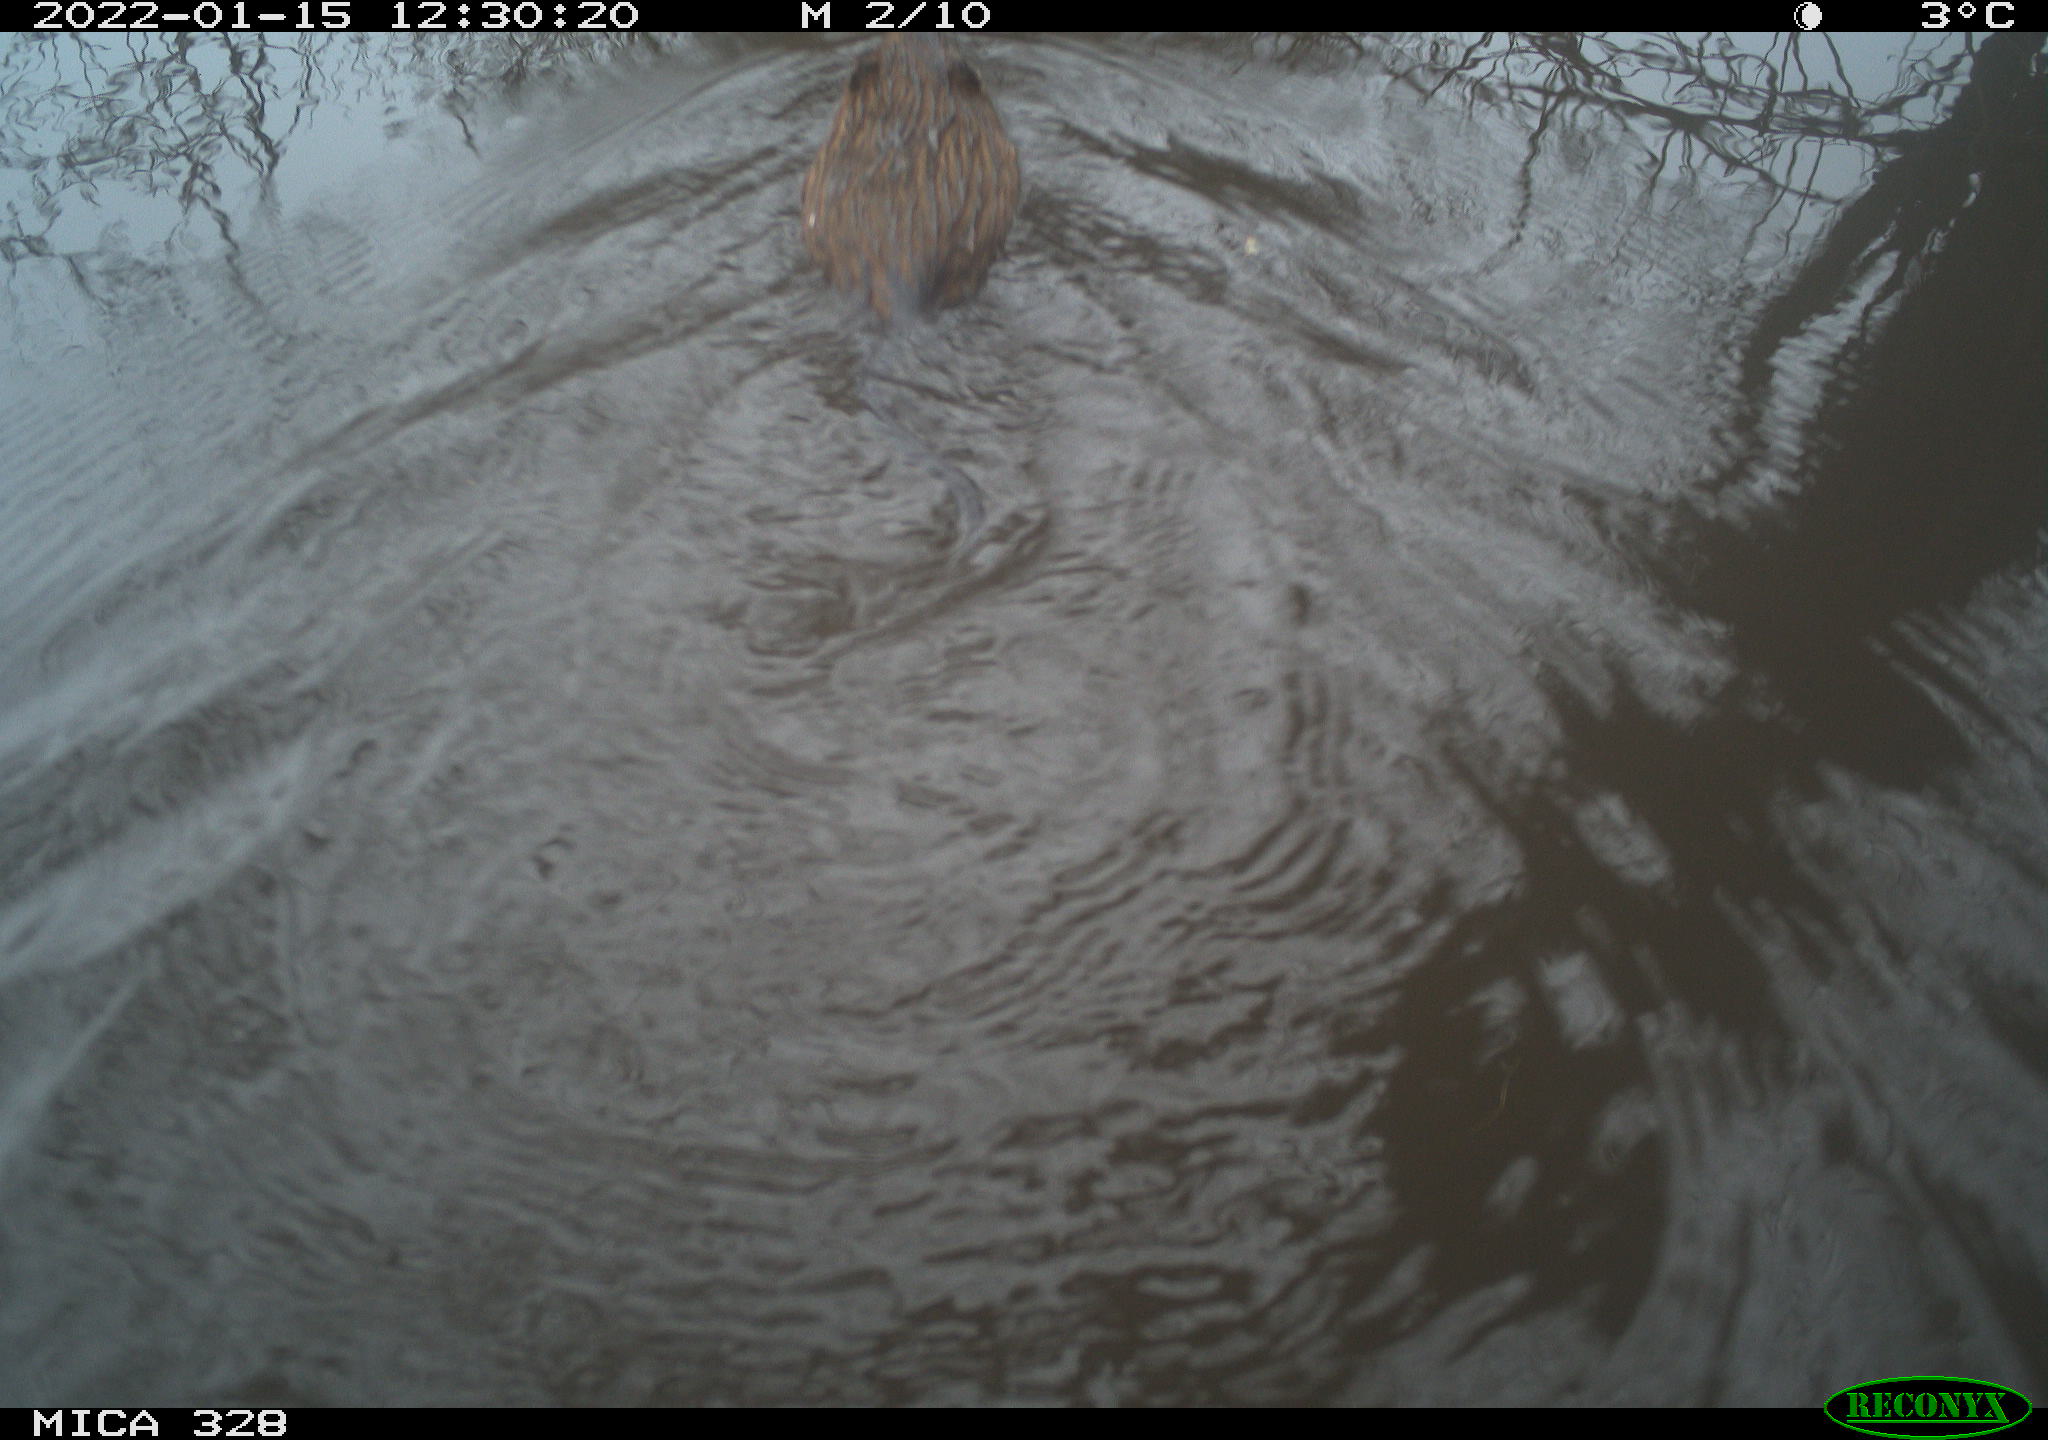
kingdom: Animalia
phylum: Chordata
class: Mammalia
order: Rodentia
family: Cricetidae
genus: Ondatra
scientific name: Ondatra zibethicus
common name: Muskrat
